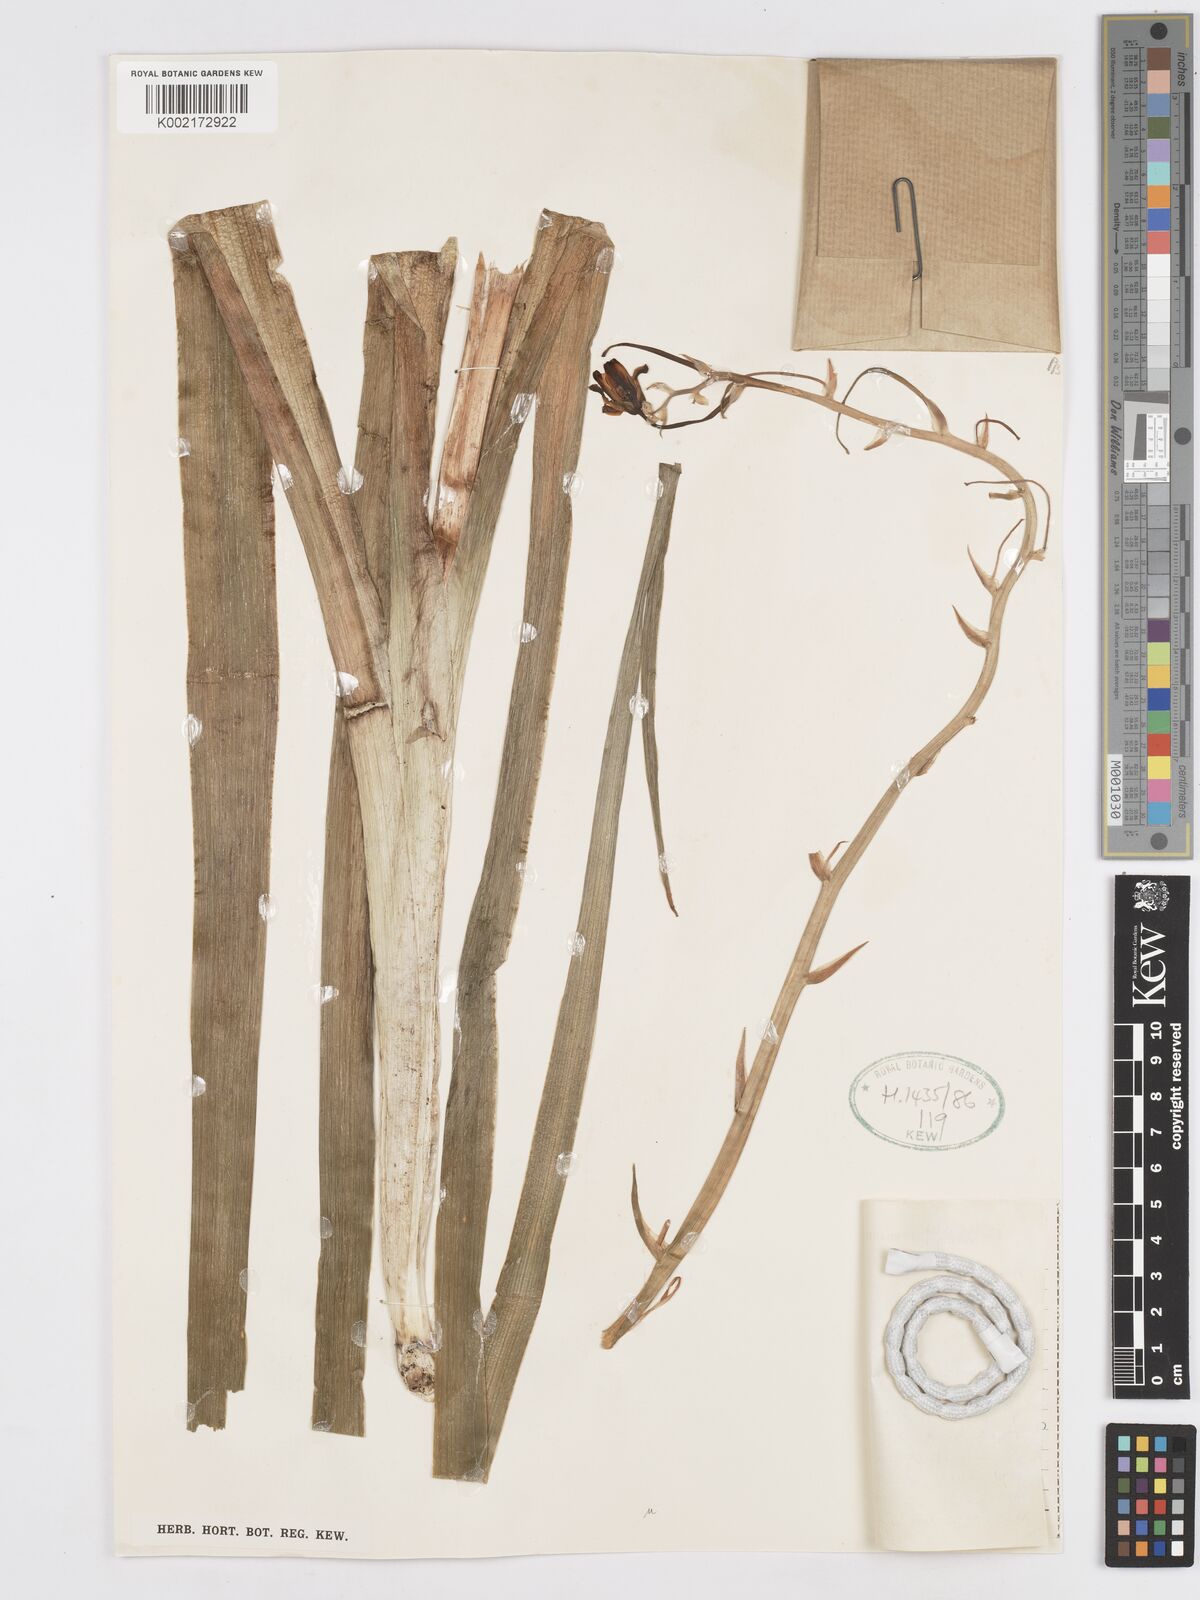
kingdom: Plantae
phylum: Tracheophyta
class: Liliopsida
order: Asparagales
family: Asparagaceae
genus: Albuca
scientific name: Albuca fastigiata
